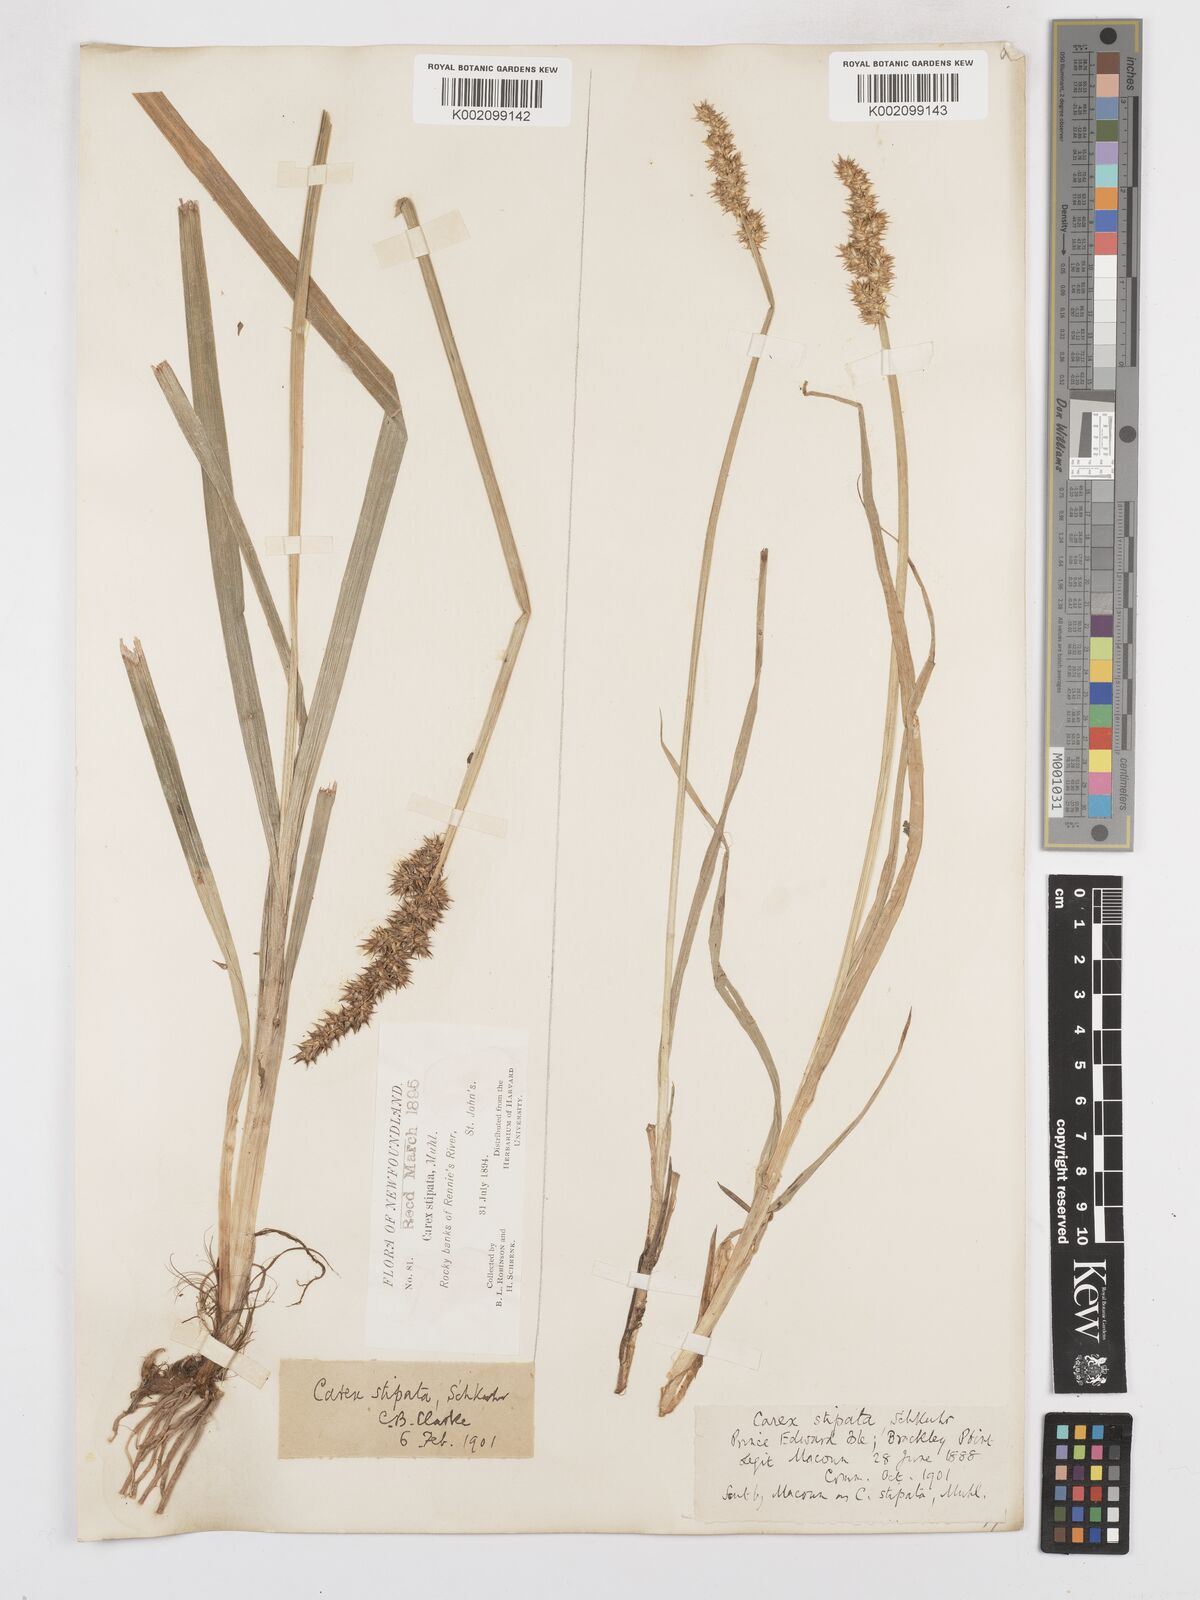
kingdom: Plantae
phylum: Tracheophyta
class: Liliopsida
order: Poales
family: Cyperaceae
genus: Carex
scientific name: Carex stipata
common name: Awl-fruited sedge
